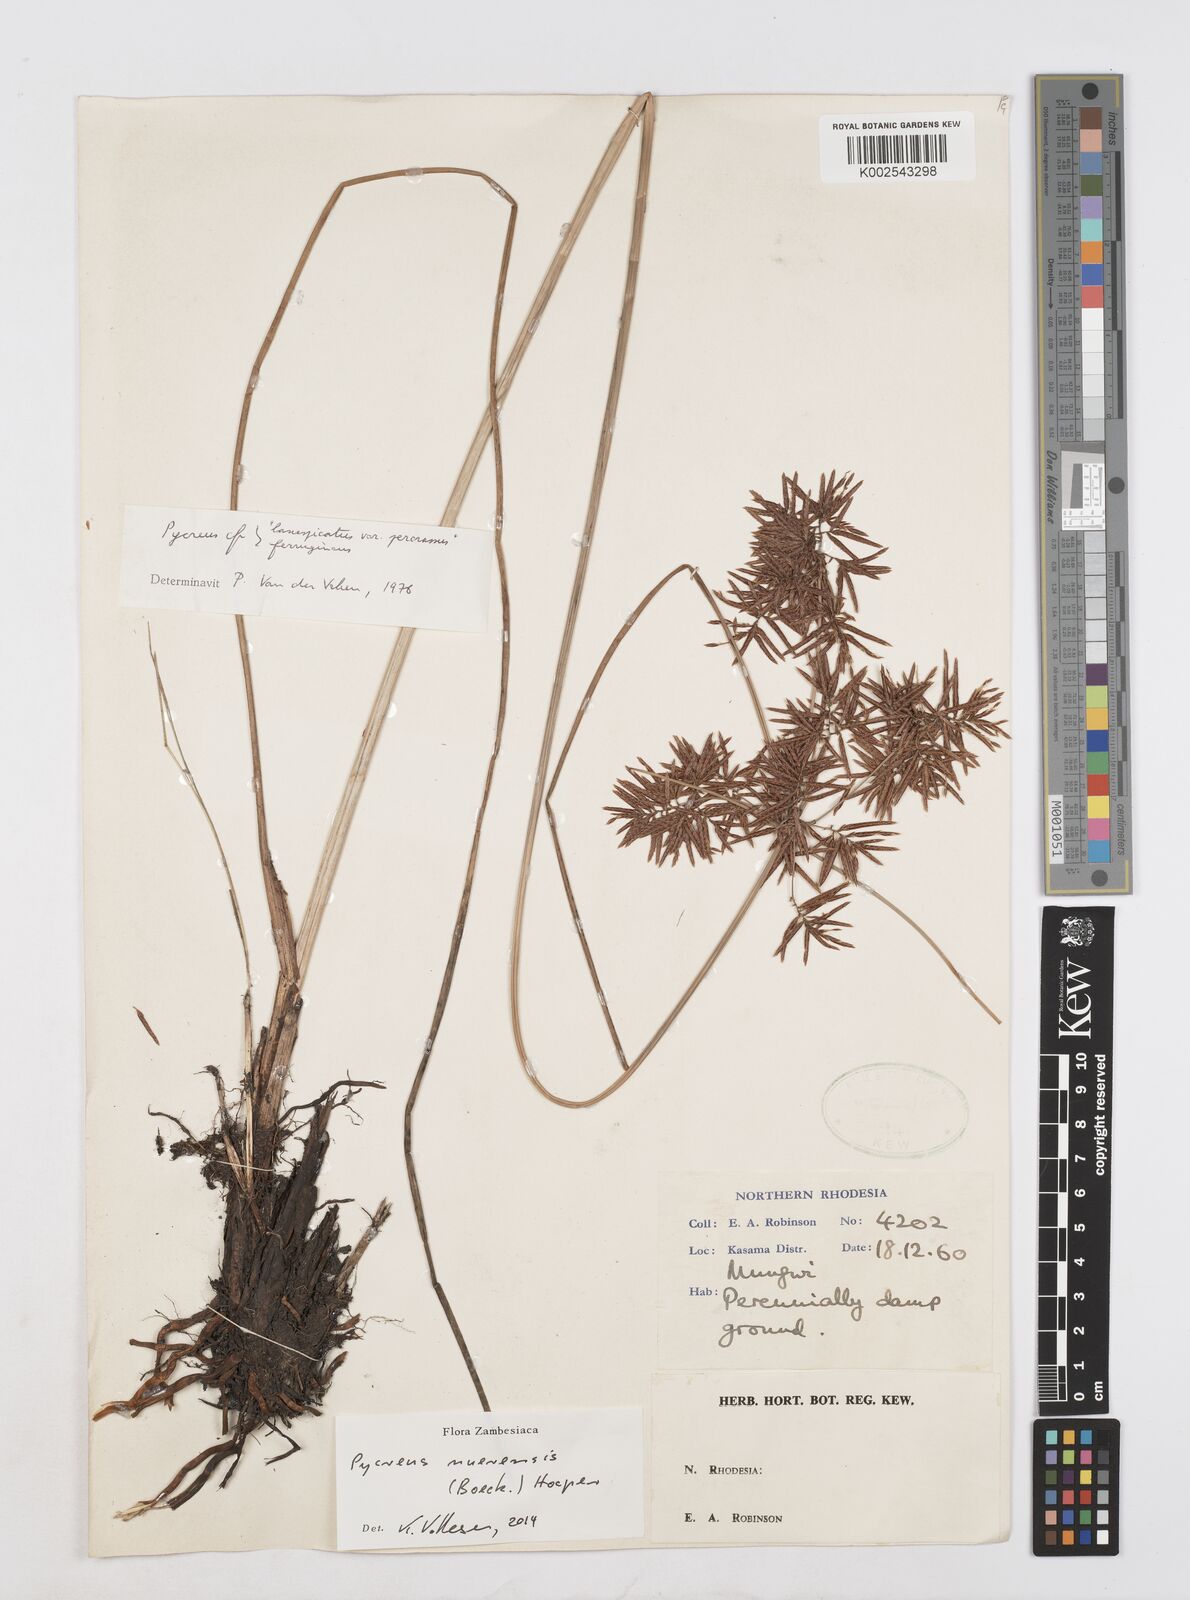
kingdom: Plantae
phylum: Tracheophyta
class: Liliopsida
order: Poales
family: Cyperaceae
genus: Cyperus
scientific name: Cyperus nuerensis
